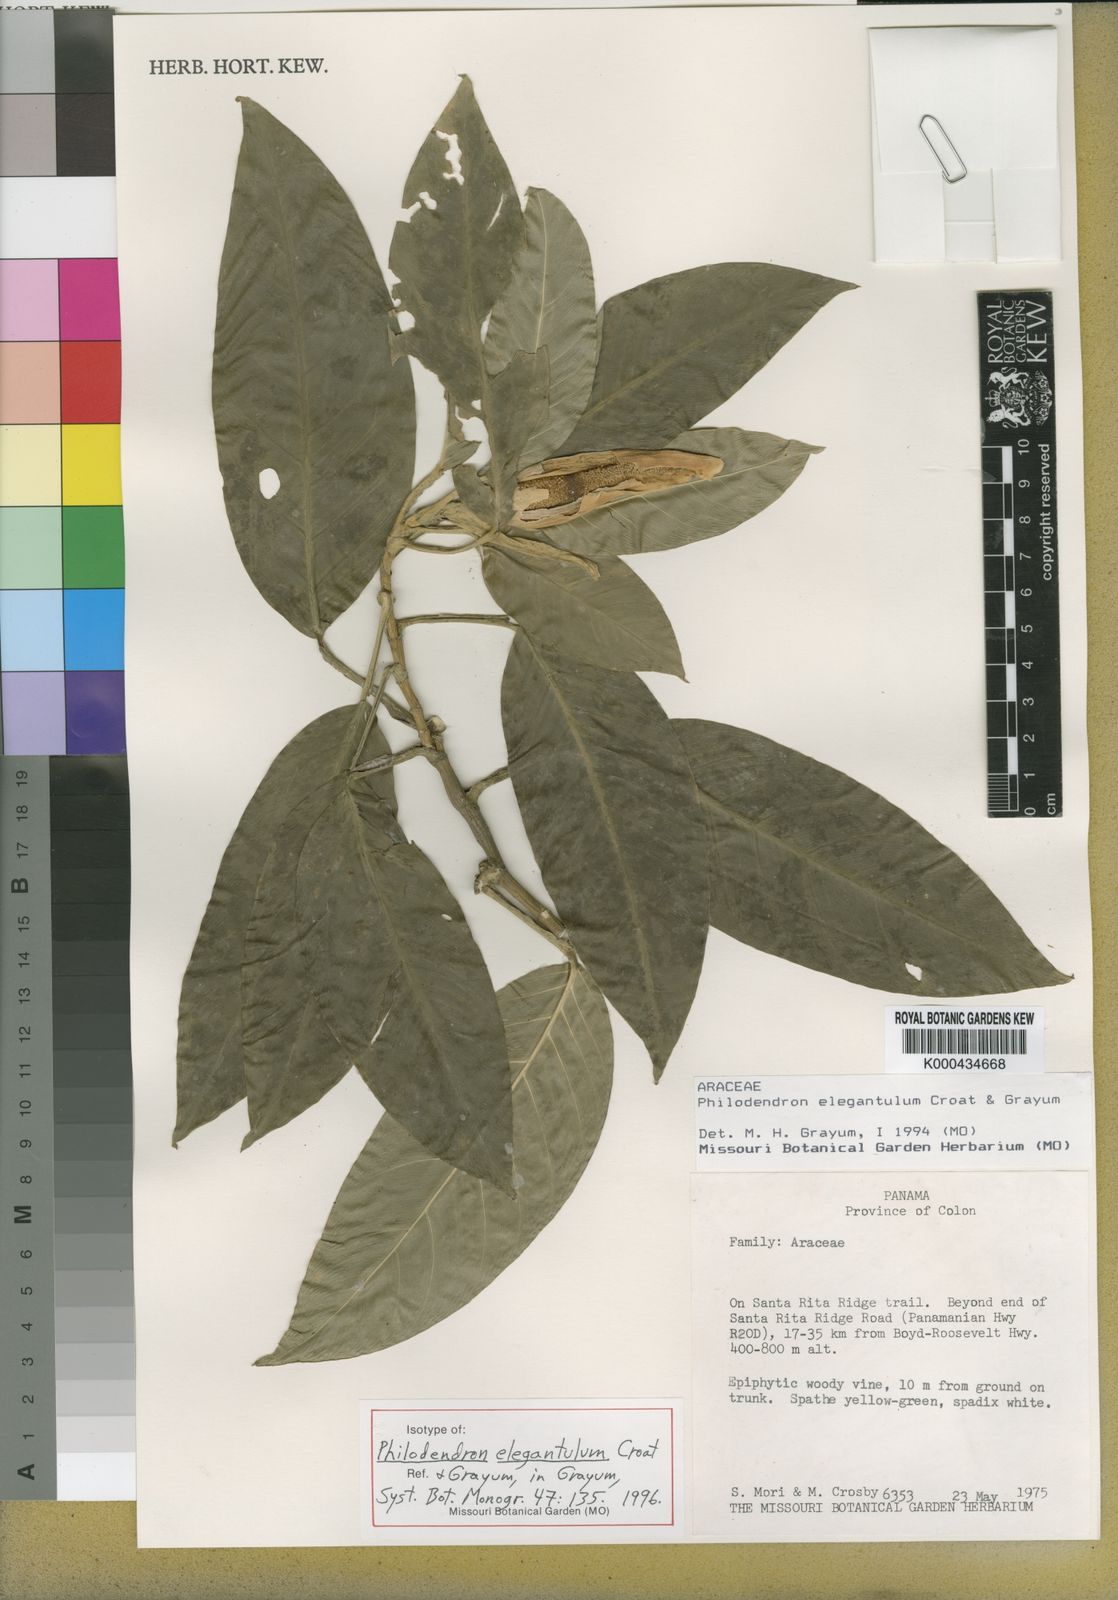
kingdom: Plantae
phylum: Tracheophyta
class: Liliopsida
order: Alismatales
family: Araceae
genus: Philodendron
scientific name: Philodendron elegantulum
